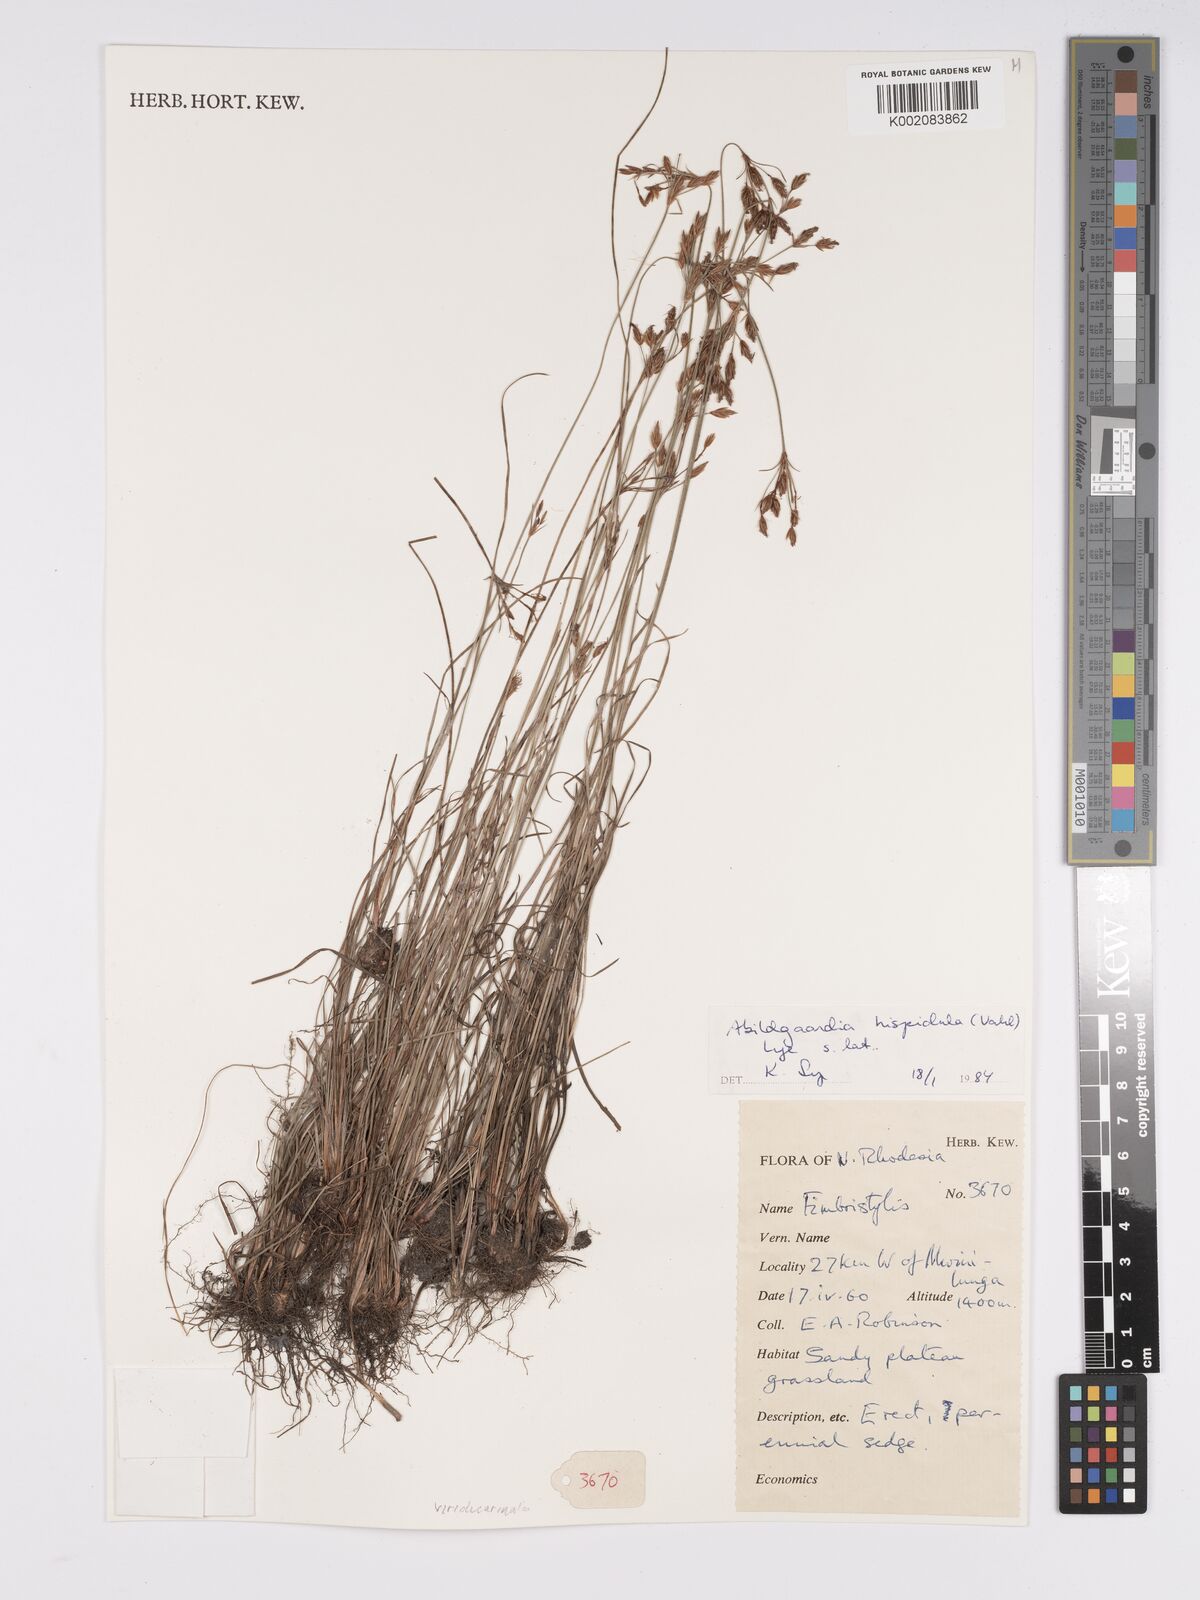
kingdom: Plantae
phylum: Tracheophyta
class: Liliopsida
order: Poales
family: Cyperaceae
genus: Bulbostylis
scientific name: Bulbostylis hispidula
